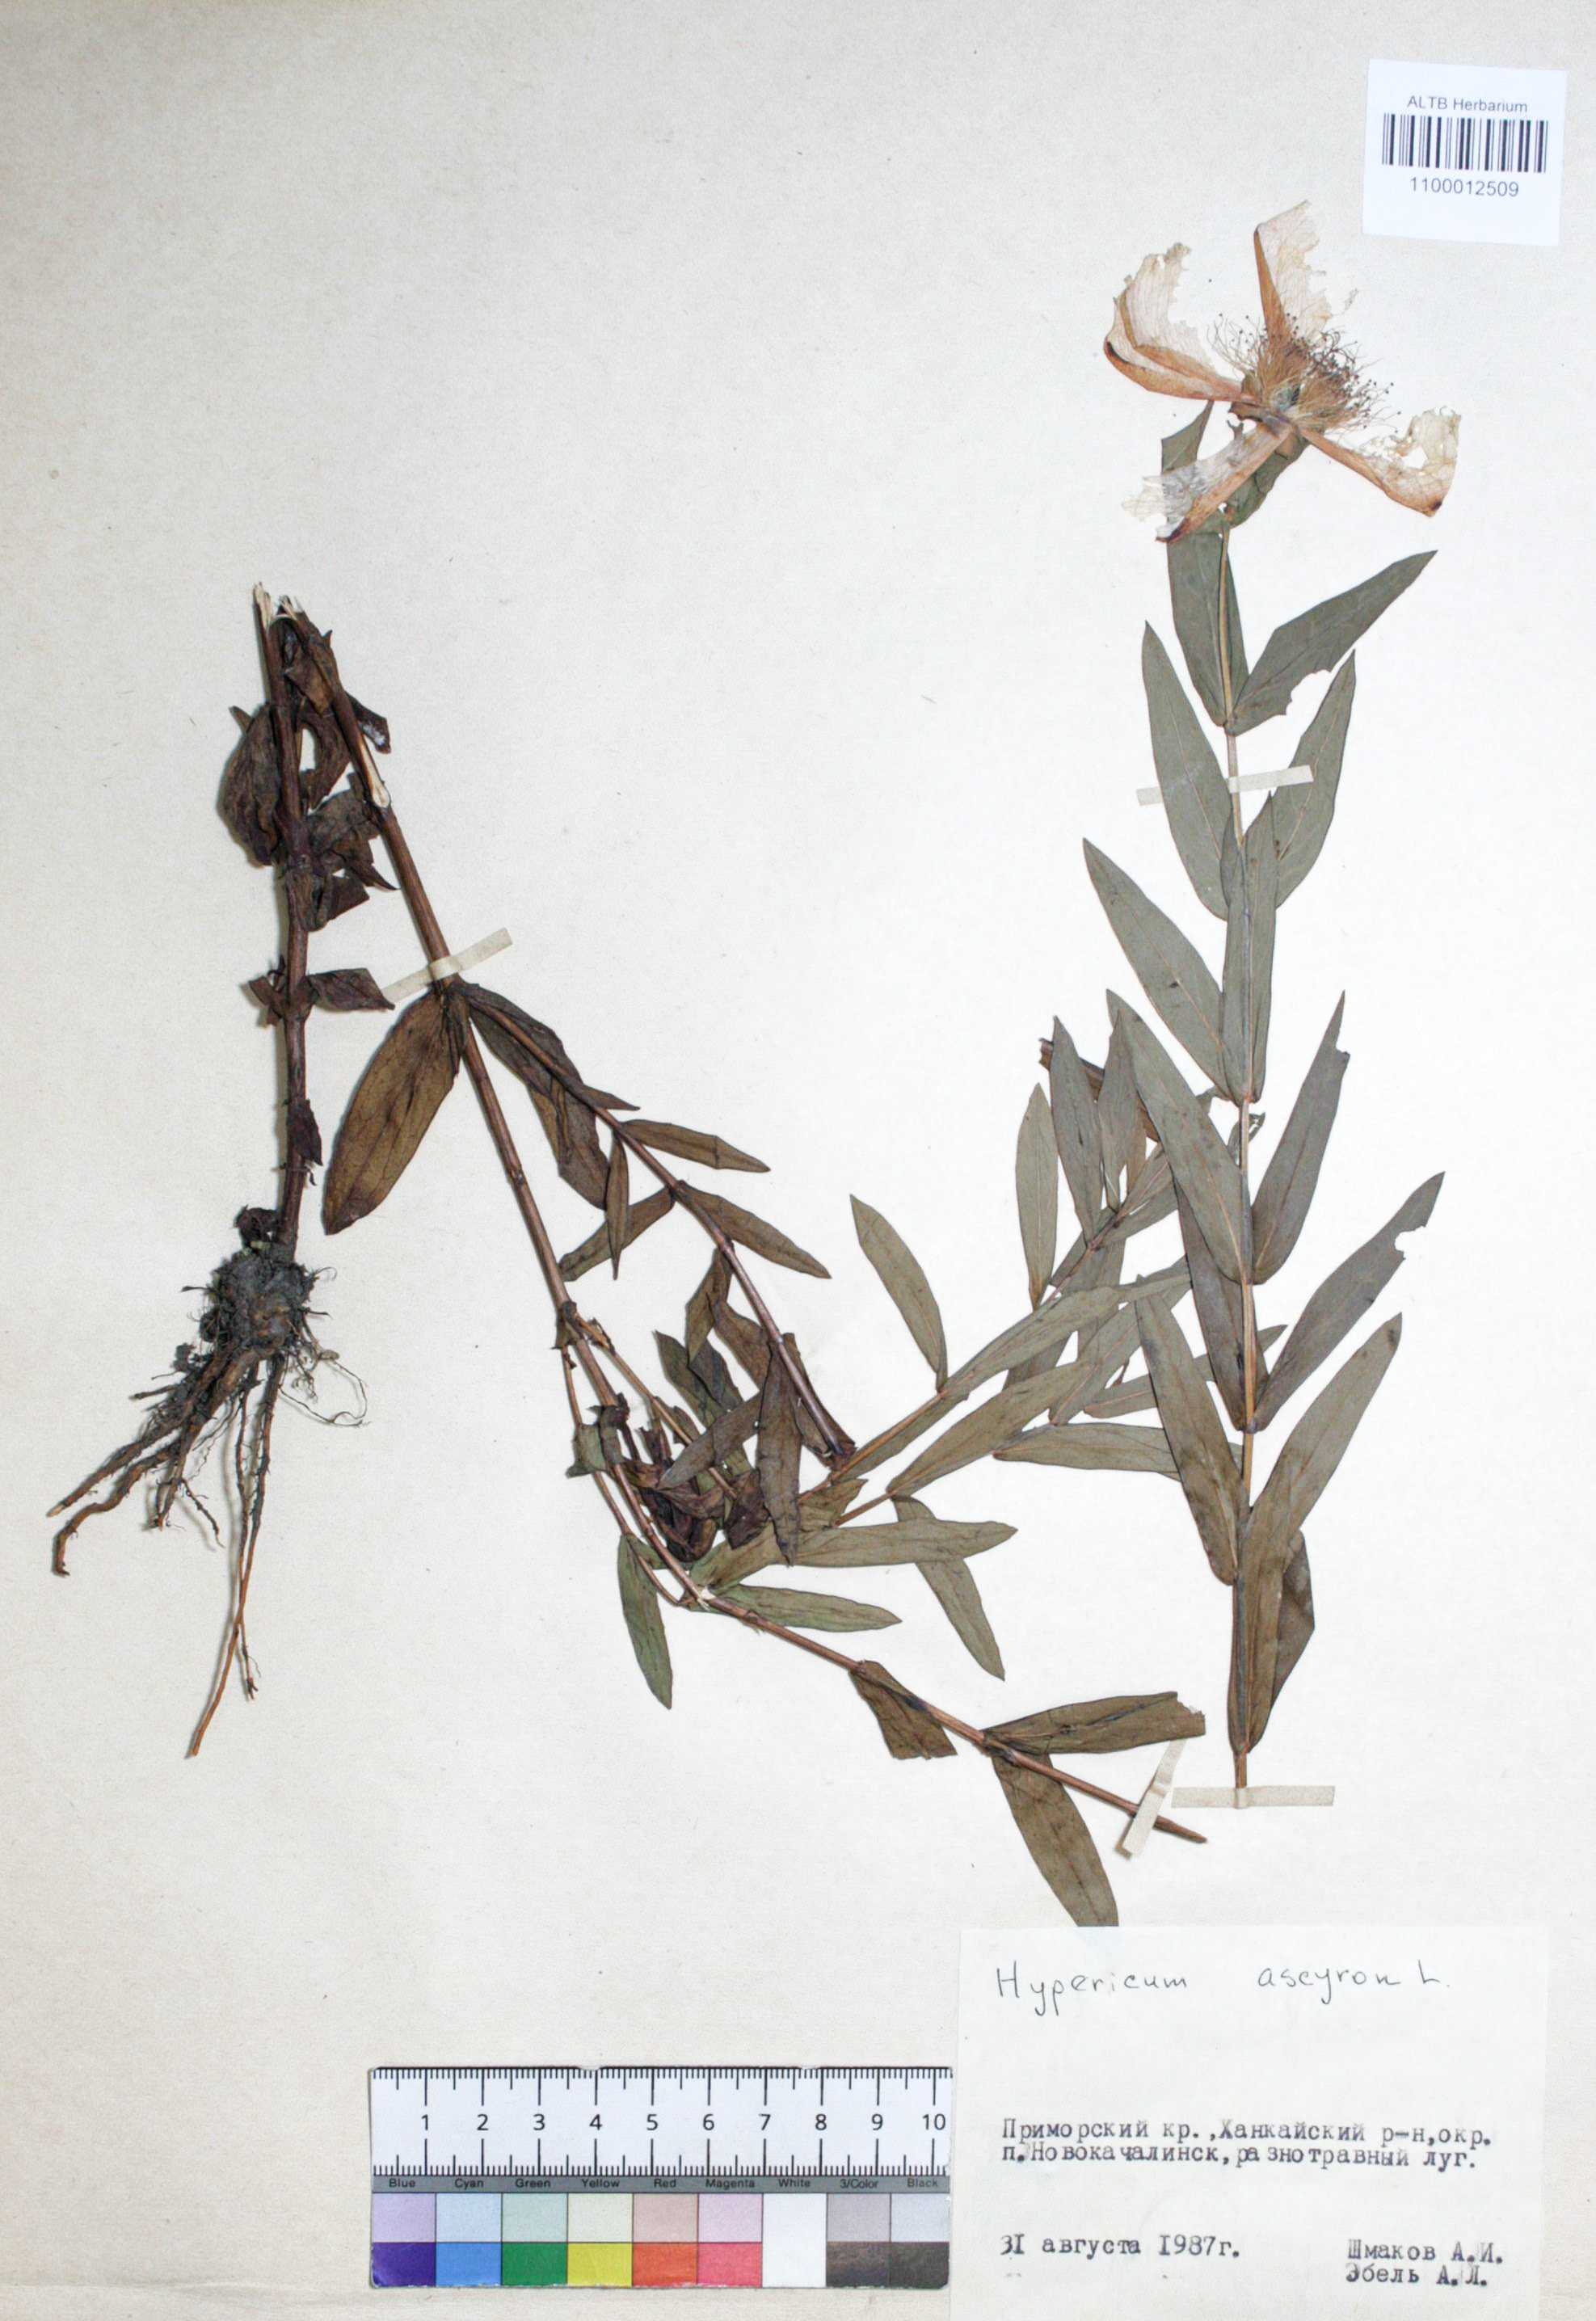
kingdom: Plantae
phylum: Tracheophyta
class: Magnoliopsida
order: Malpighiales
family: Hypericaceae
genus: Hypericum
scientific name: Hypericum ascyron
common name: Giant st. john's-wort
